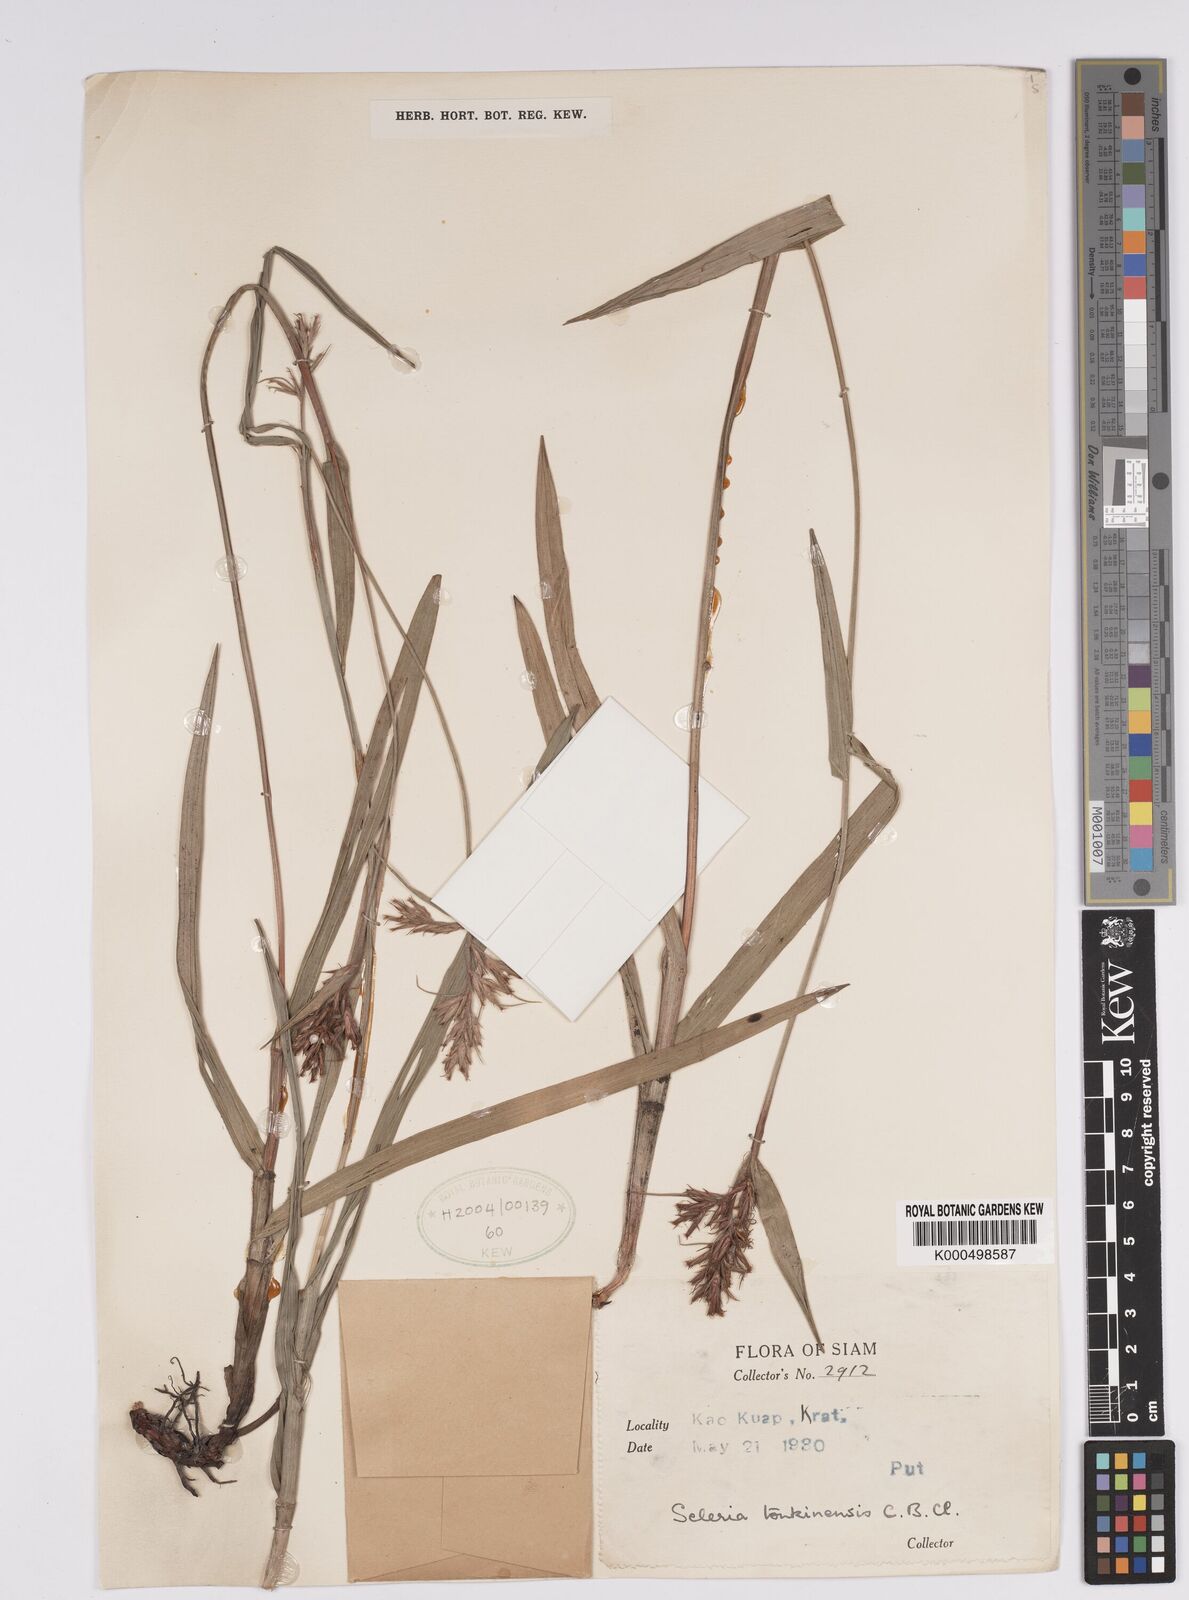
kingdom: Plantae
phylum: Tracheophyta
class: Liliopsida
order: Poales
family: Cyperaceae
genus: Scleria
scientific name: Scleria tonkinensis
